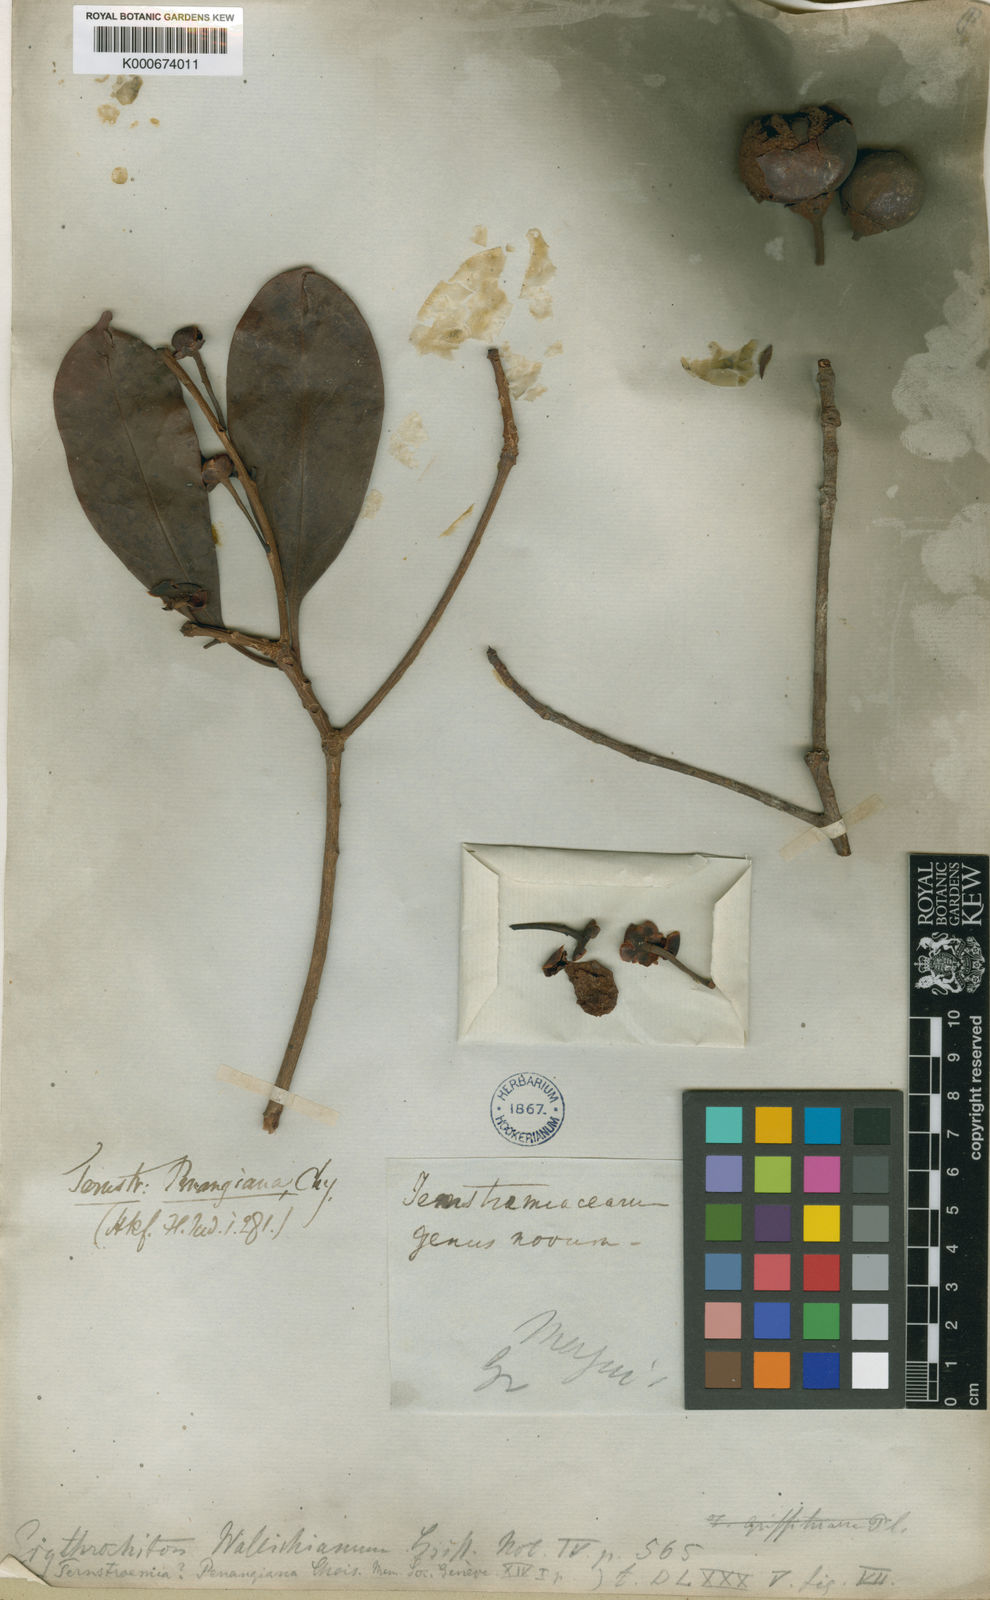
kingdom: Plantae
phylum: Tracheophyta
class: Magnoliopsida
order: Ericales
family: Pentaphylacaceae
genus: Ternstroemia
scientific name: Ternstroemia penangiana
